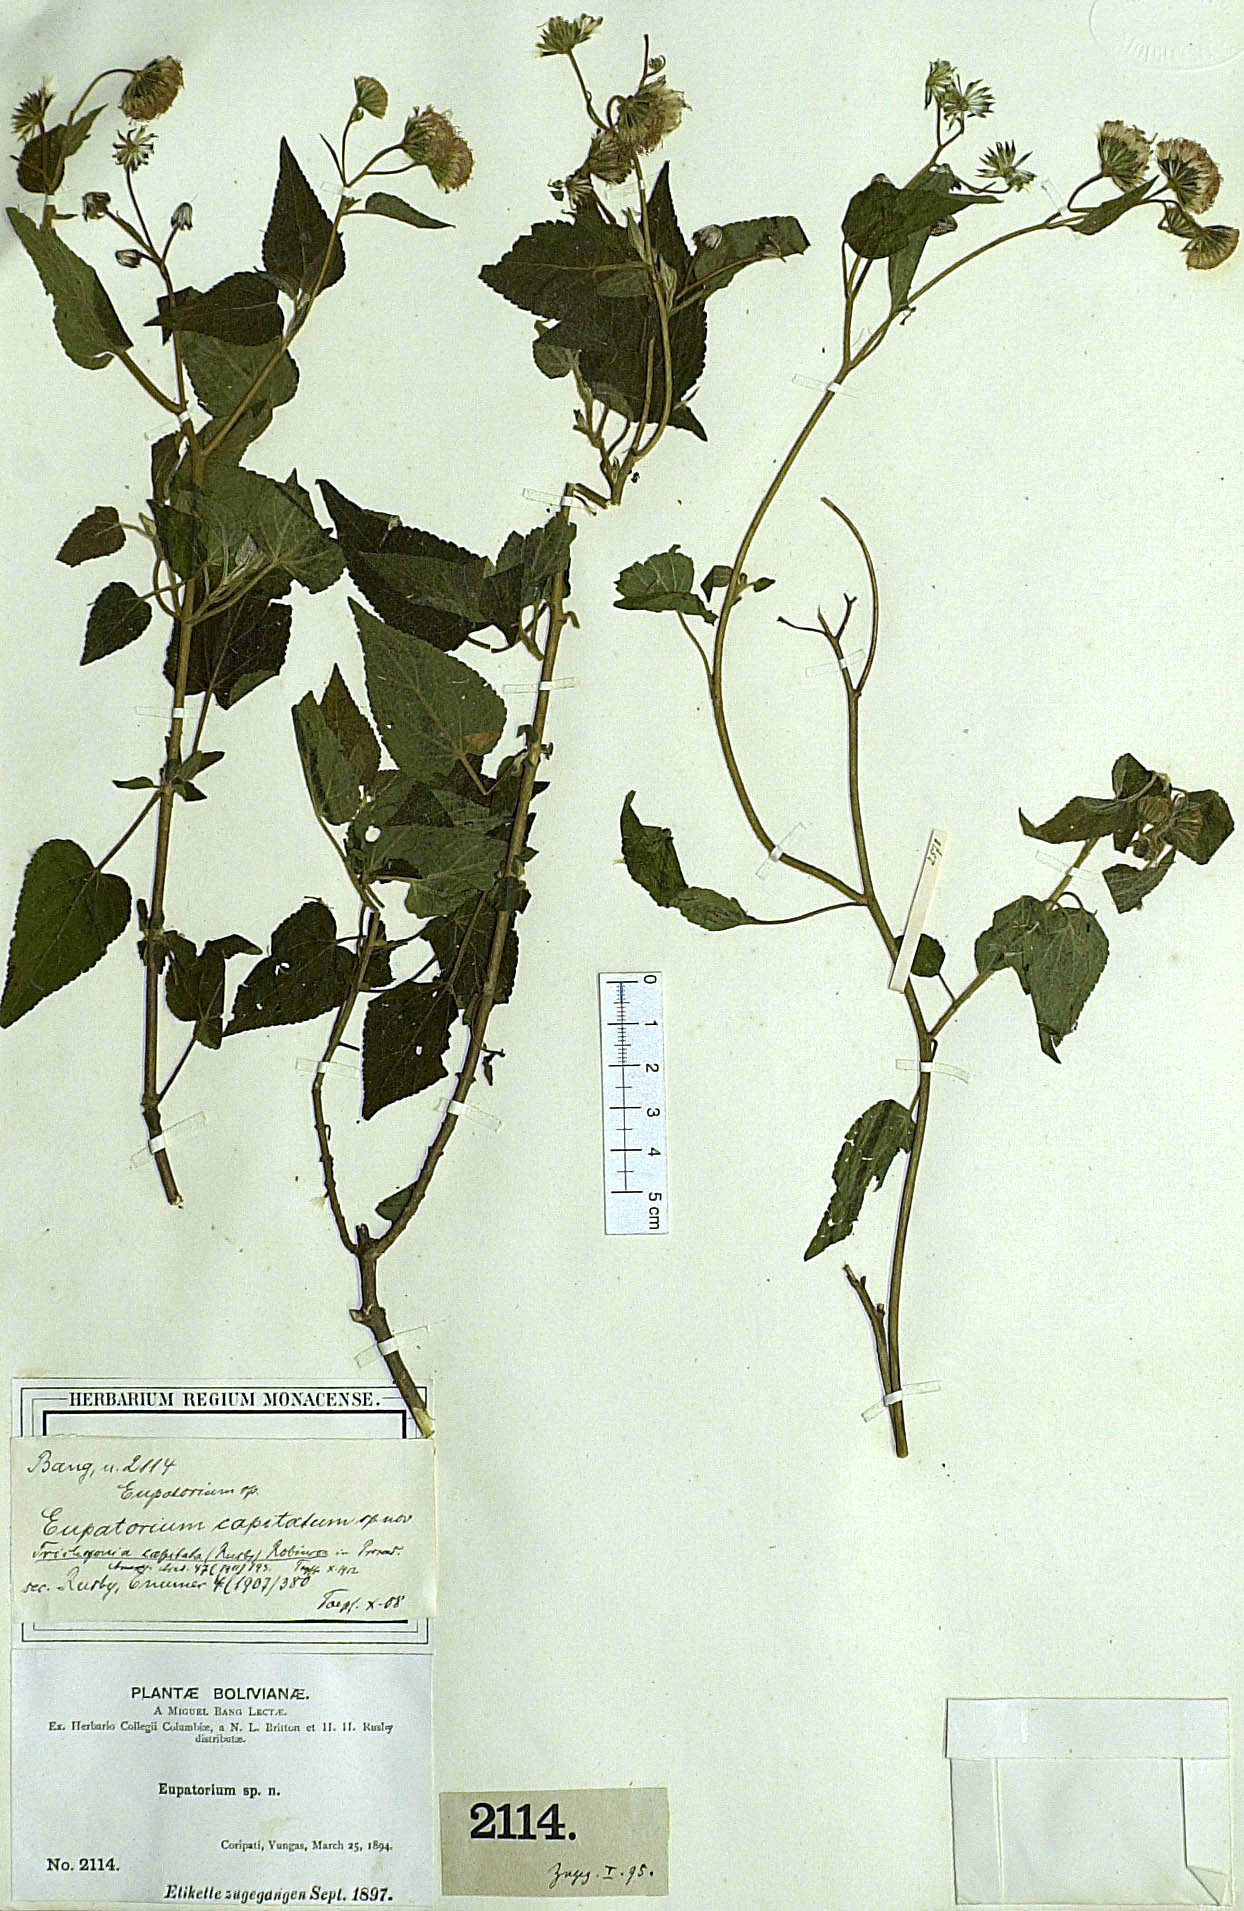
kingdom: Plantae
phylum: Tracheophyta
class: Magnoliopsida
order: Asterales
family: Asteraceae
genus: Trichogonia
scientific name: Trichogonia capitata
